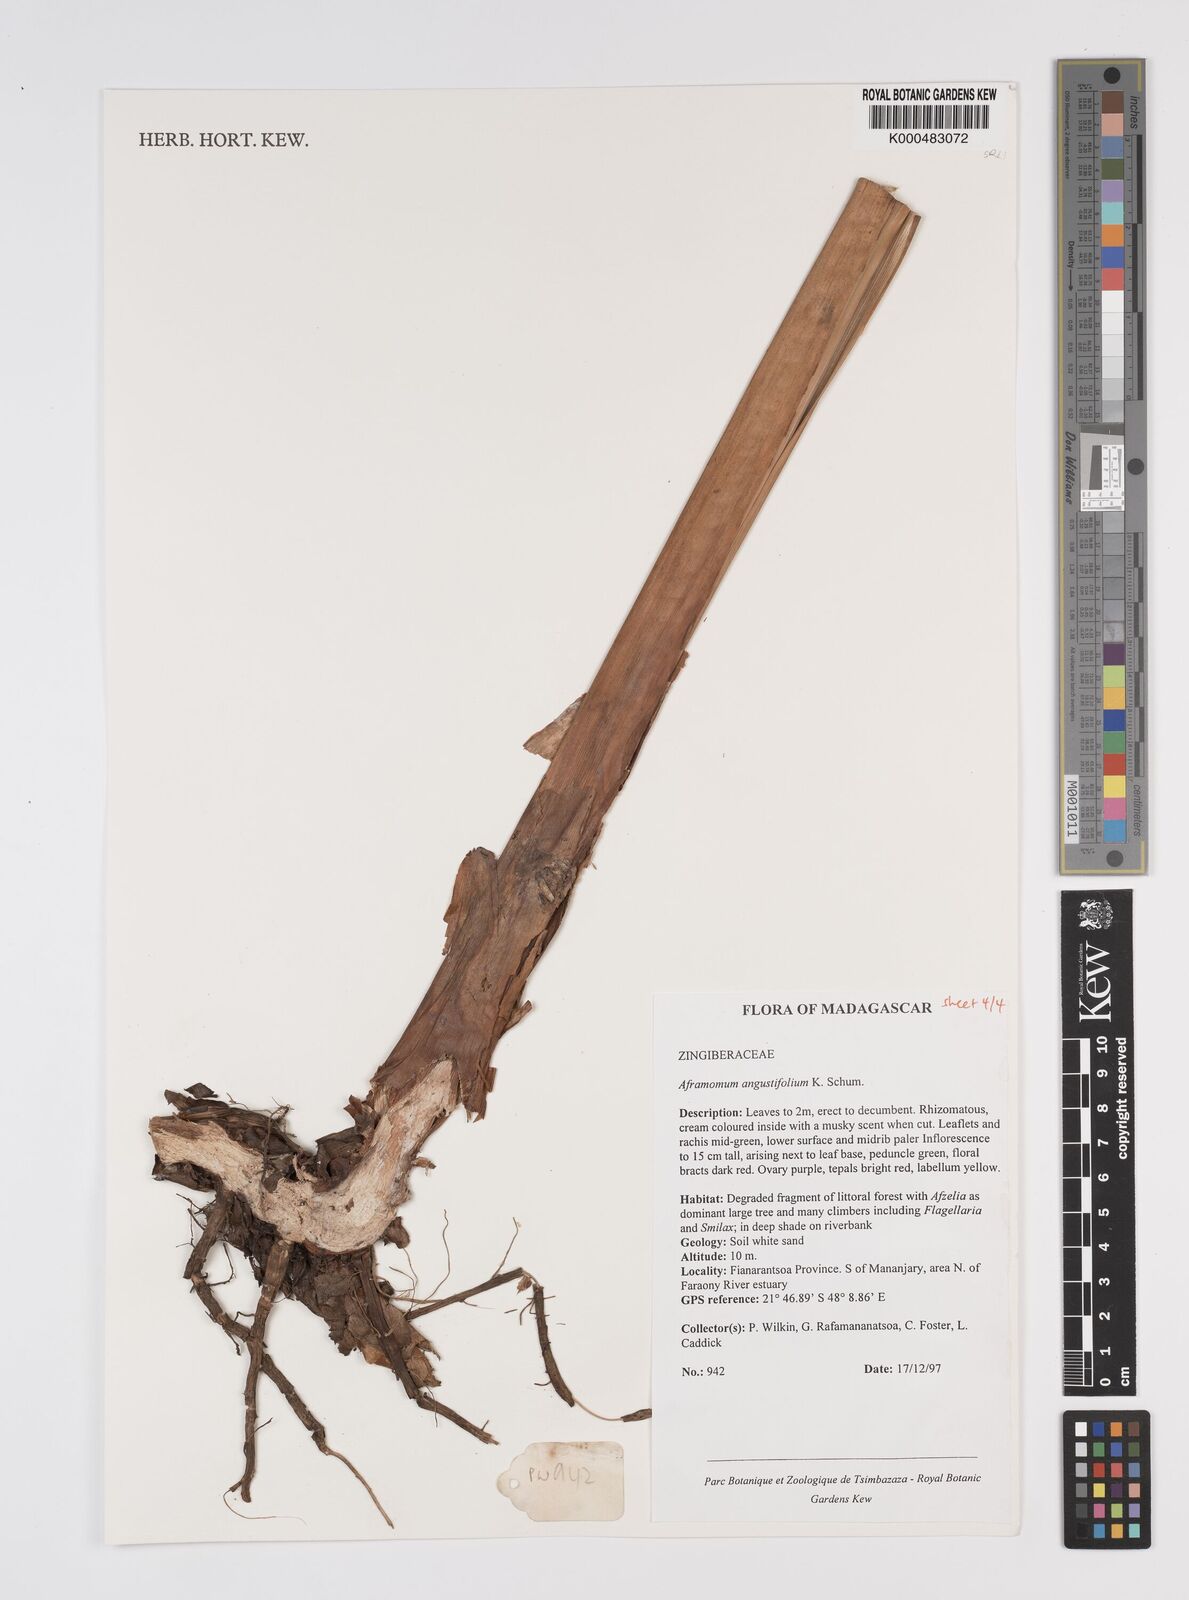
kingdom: Plantae
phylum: Tracheophyta
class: Liliopsida
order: Zingiberales
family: Zingiberaceae
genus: Aframomum
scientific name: Aframomum angustifolium
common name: Guinea grains
